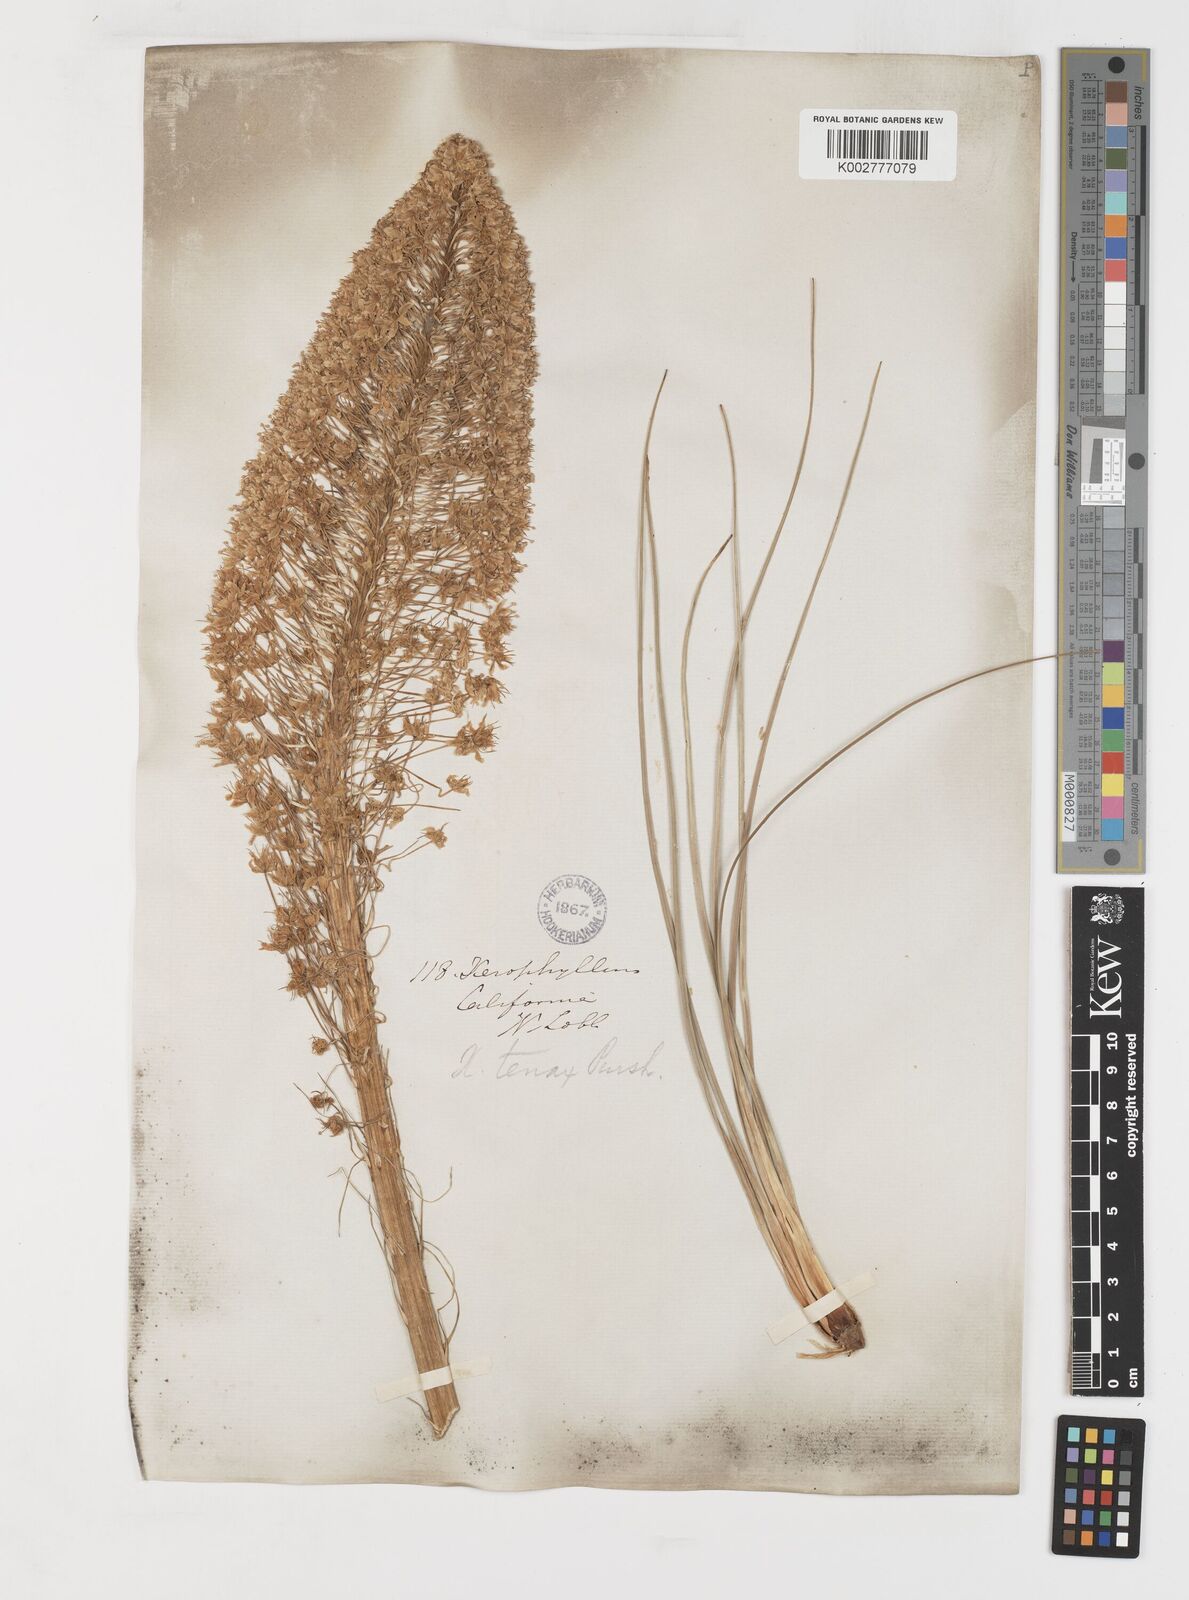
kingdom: Plantae
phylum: Tracheophyta
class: Liliopsida
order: Liliales
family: Melanthiaceae
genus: Xerophyllum
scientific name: Xerophyllum tenax
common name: Bear-grass
